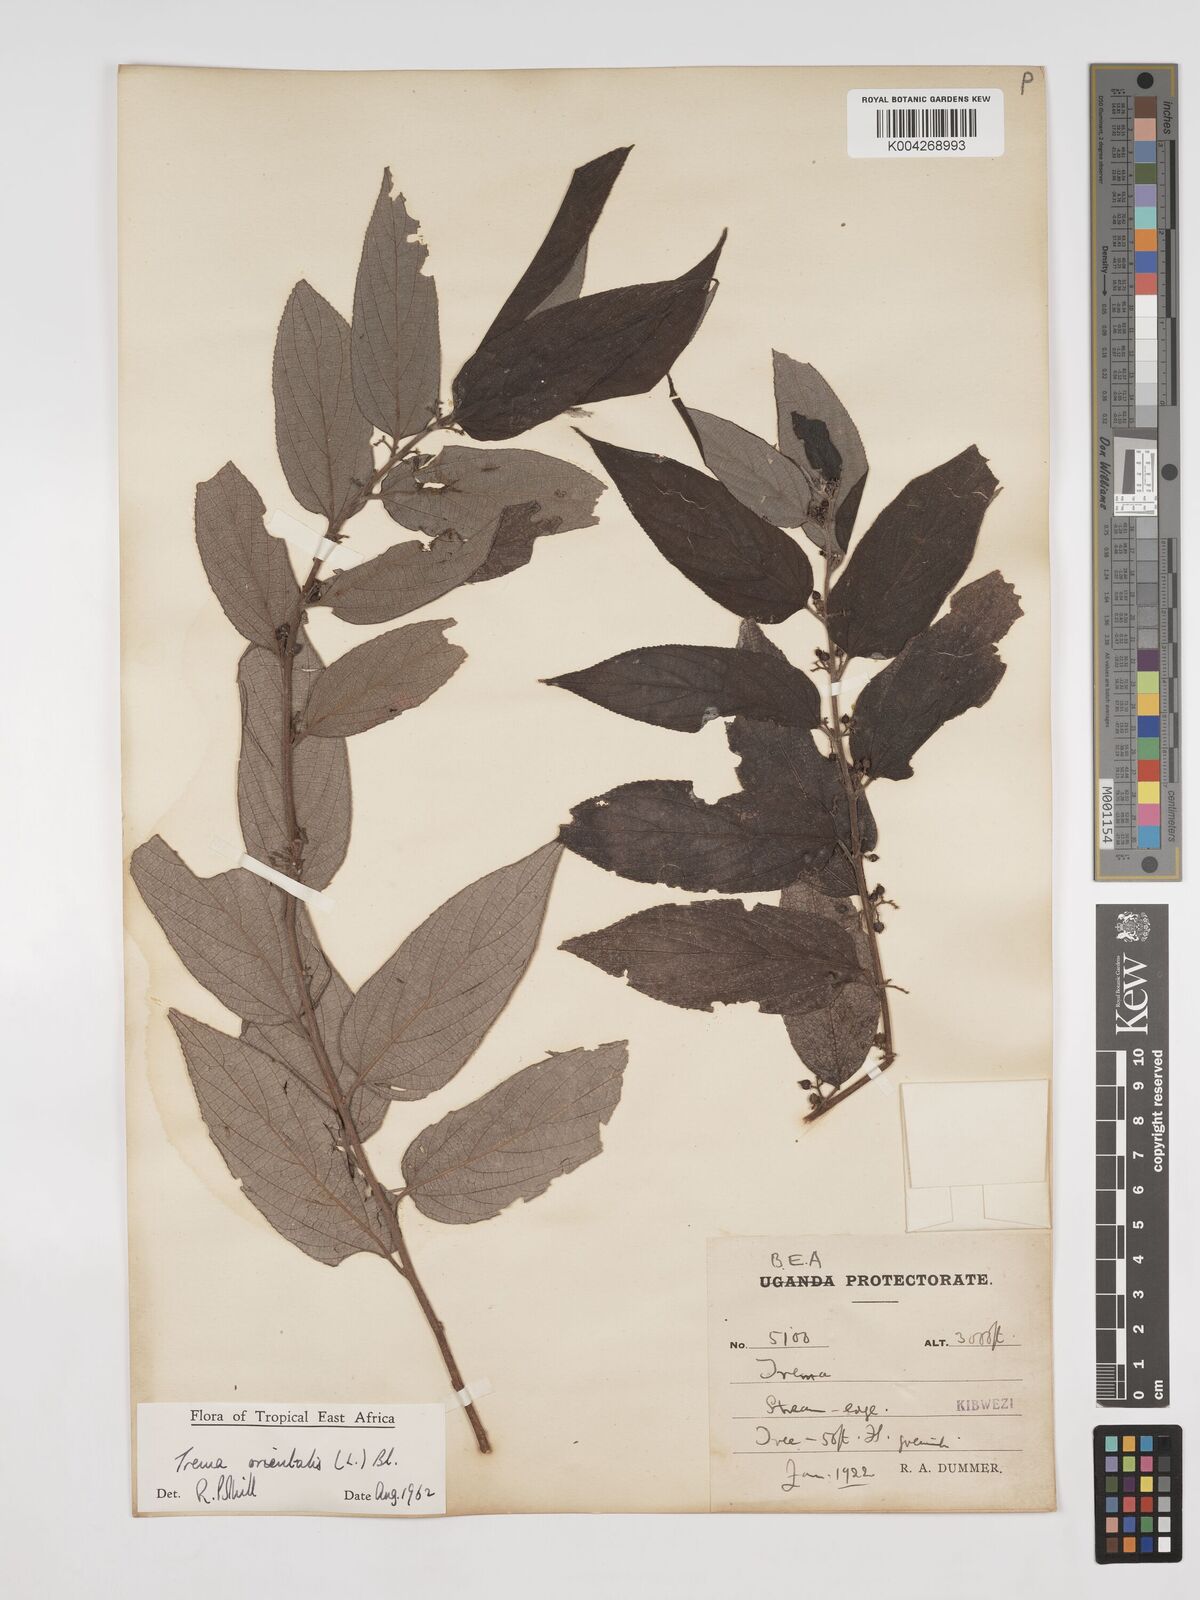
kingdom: Plantae
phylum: Tracheophyta
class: Magnoliopsida
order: Rosales
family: Cannabaceae
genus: Trema
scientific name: Trema orientale
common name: Indian charcoal tree
